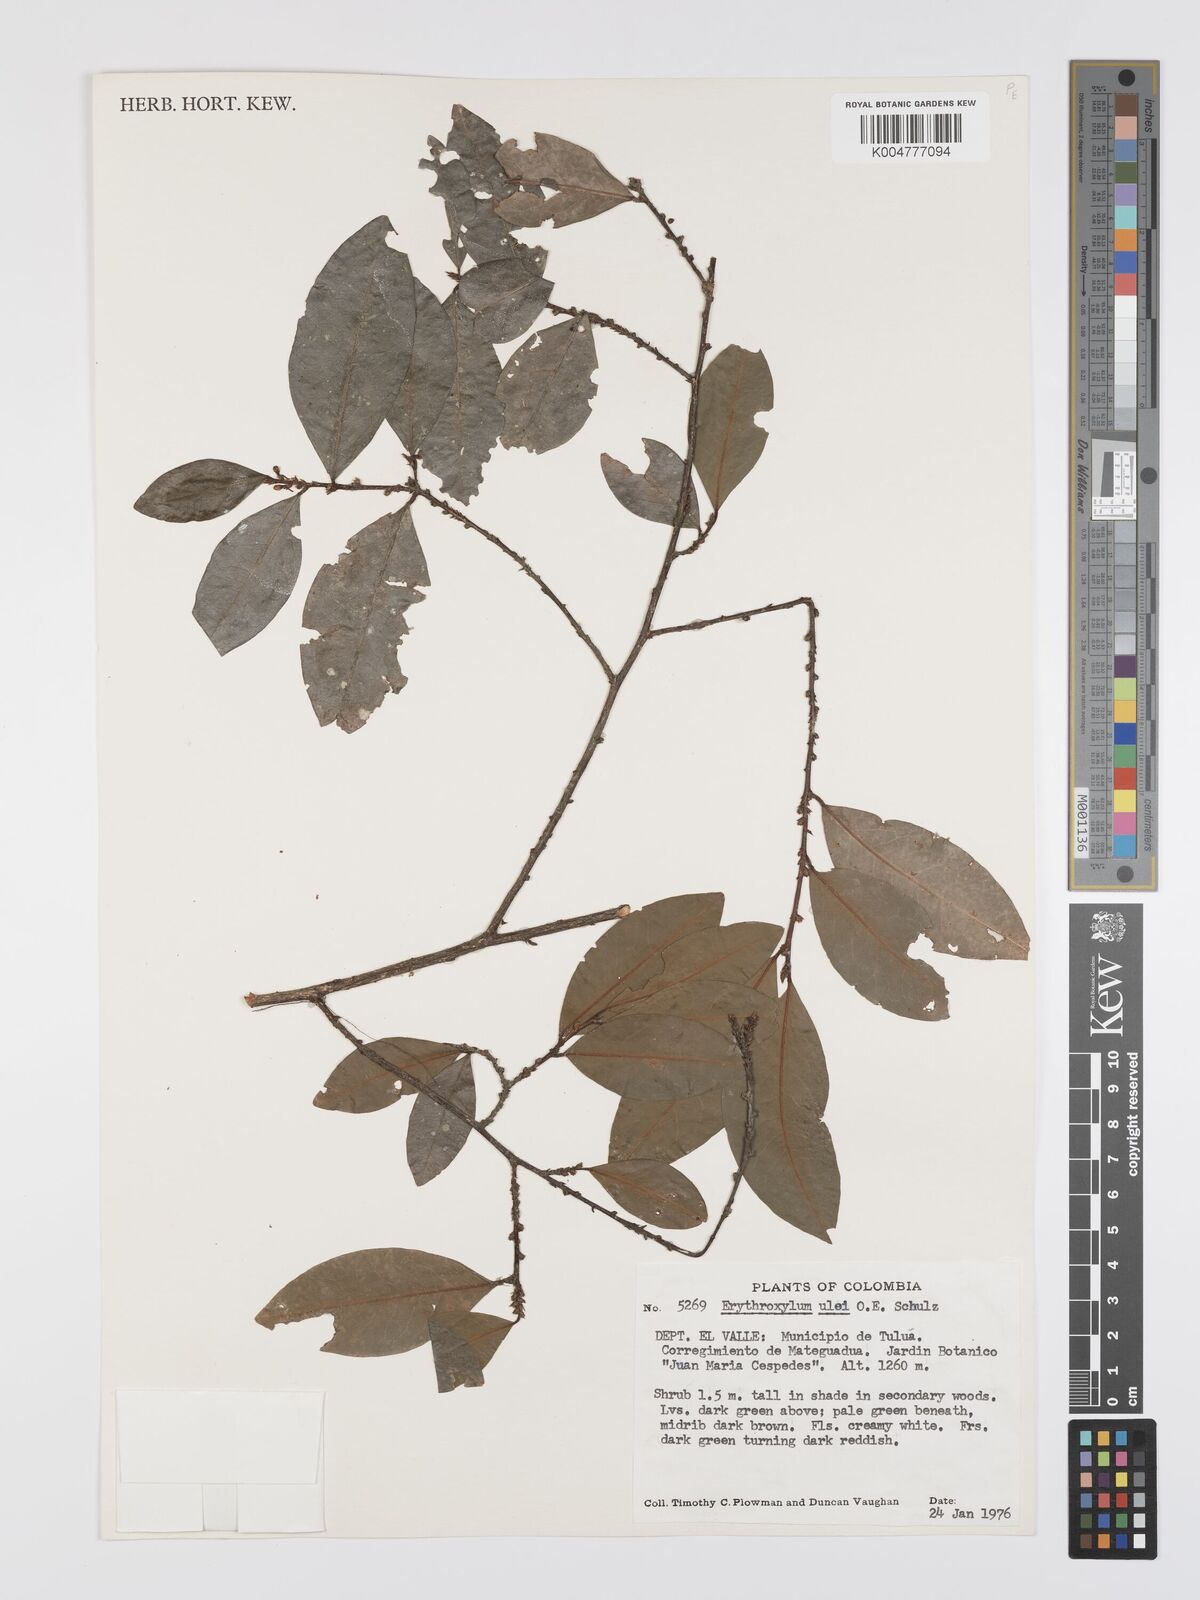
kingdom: Plantae
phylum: Tracheophyta
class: Magnoliopsida
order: Malpighiales
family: Erythroxylaceae
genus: Erythroxylum
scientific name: Erythroxylum ulei
